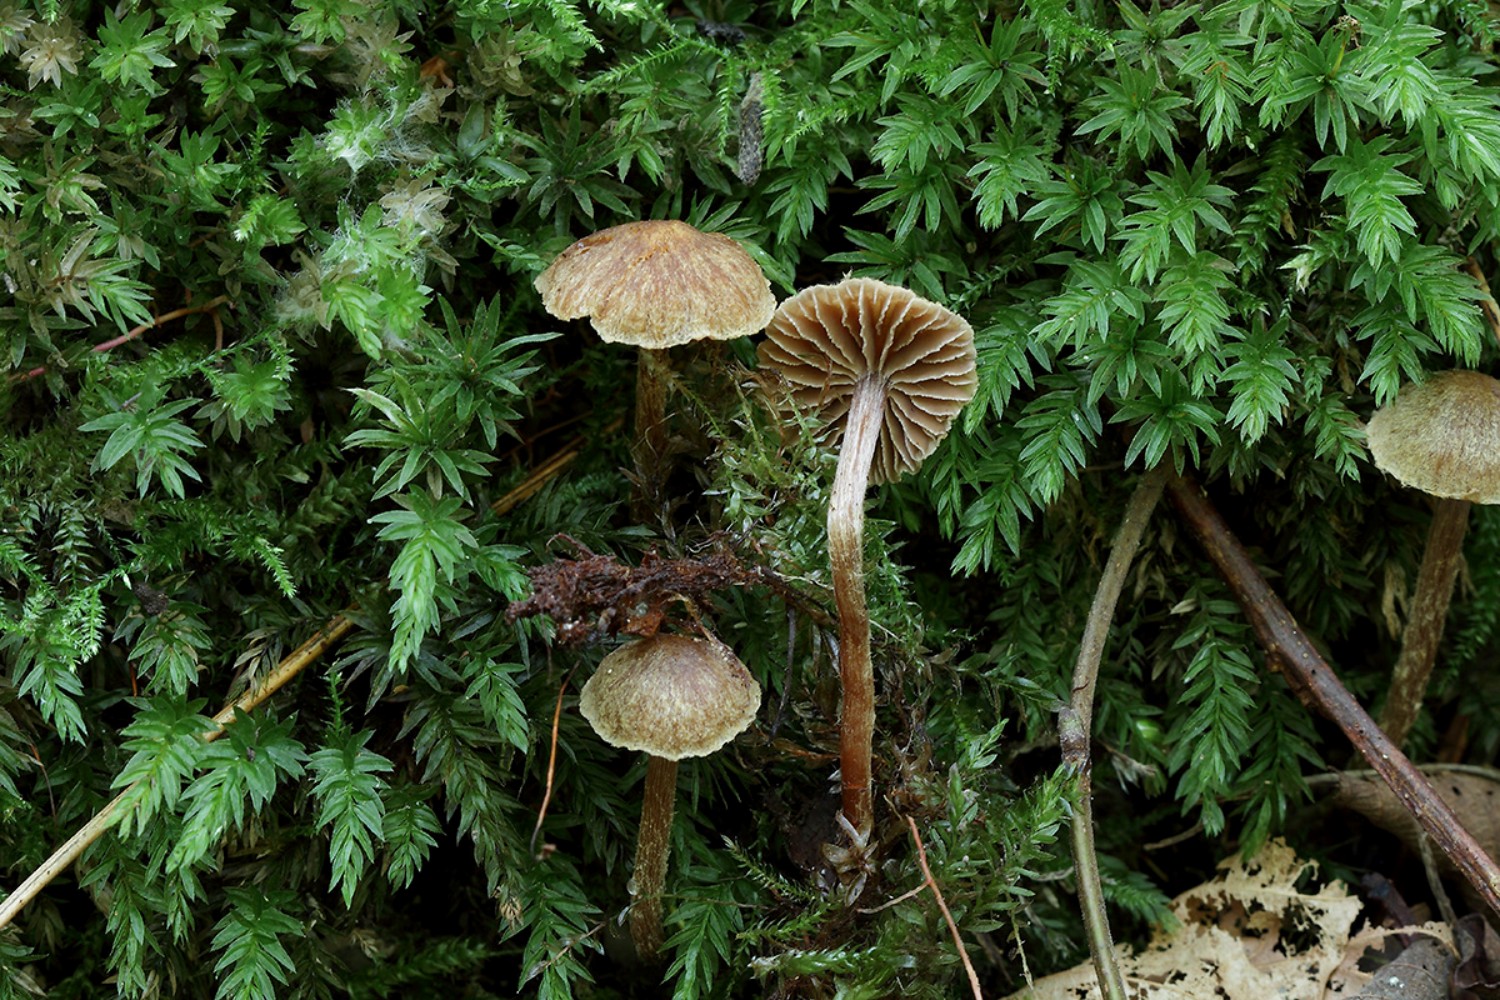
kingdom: Fungi
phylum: Basidiomycota
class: Agaricomycetes
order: Agaricales
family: Cortinariaceae
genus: Cortinarius
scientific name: Cortinarius helvelloides
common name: fjernbladet slørhat
